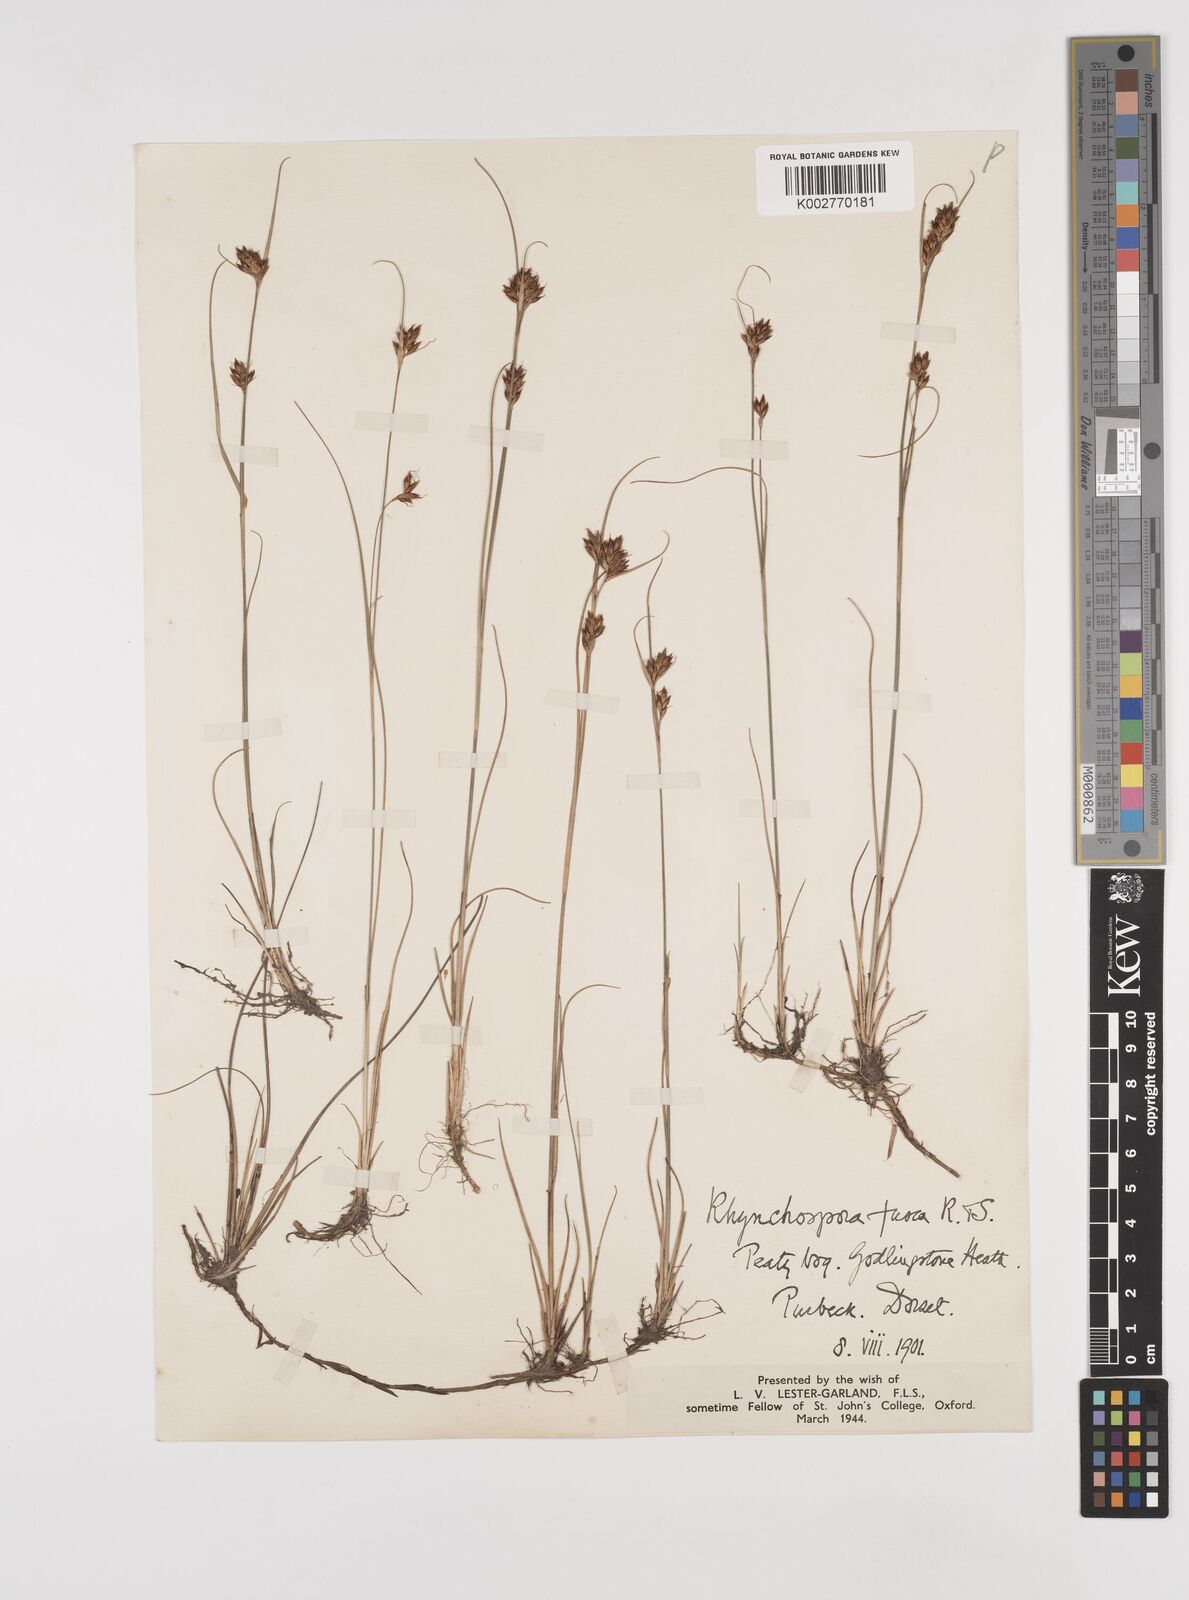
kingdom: Plantae
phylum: Tracheophyta
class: Liliopsida
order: Poales
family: Cyperaceae
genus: Rhynchospora
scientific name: Rhynchospora fusca
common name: Brown beak-sedge
